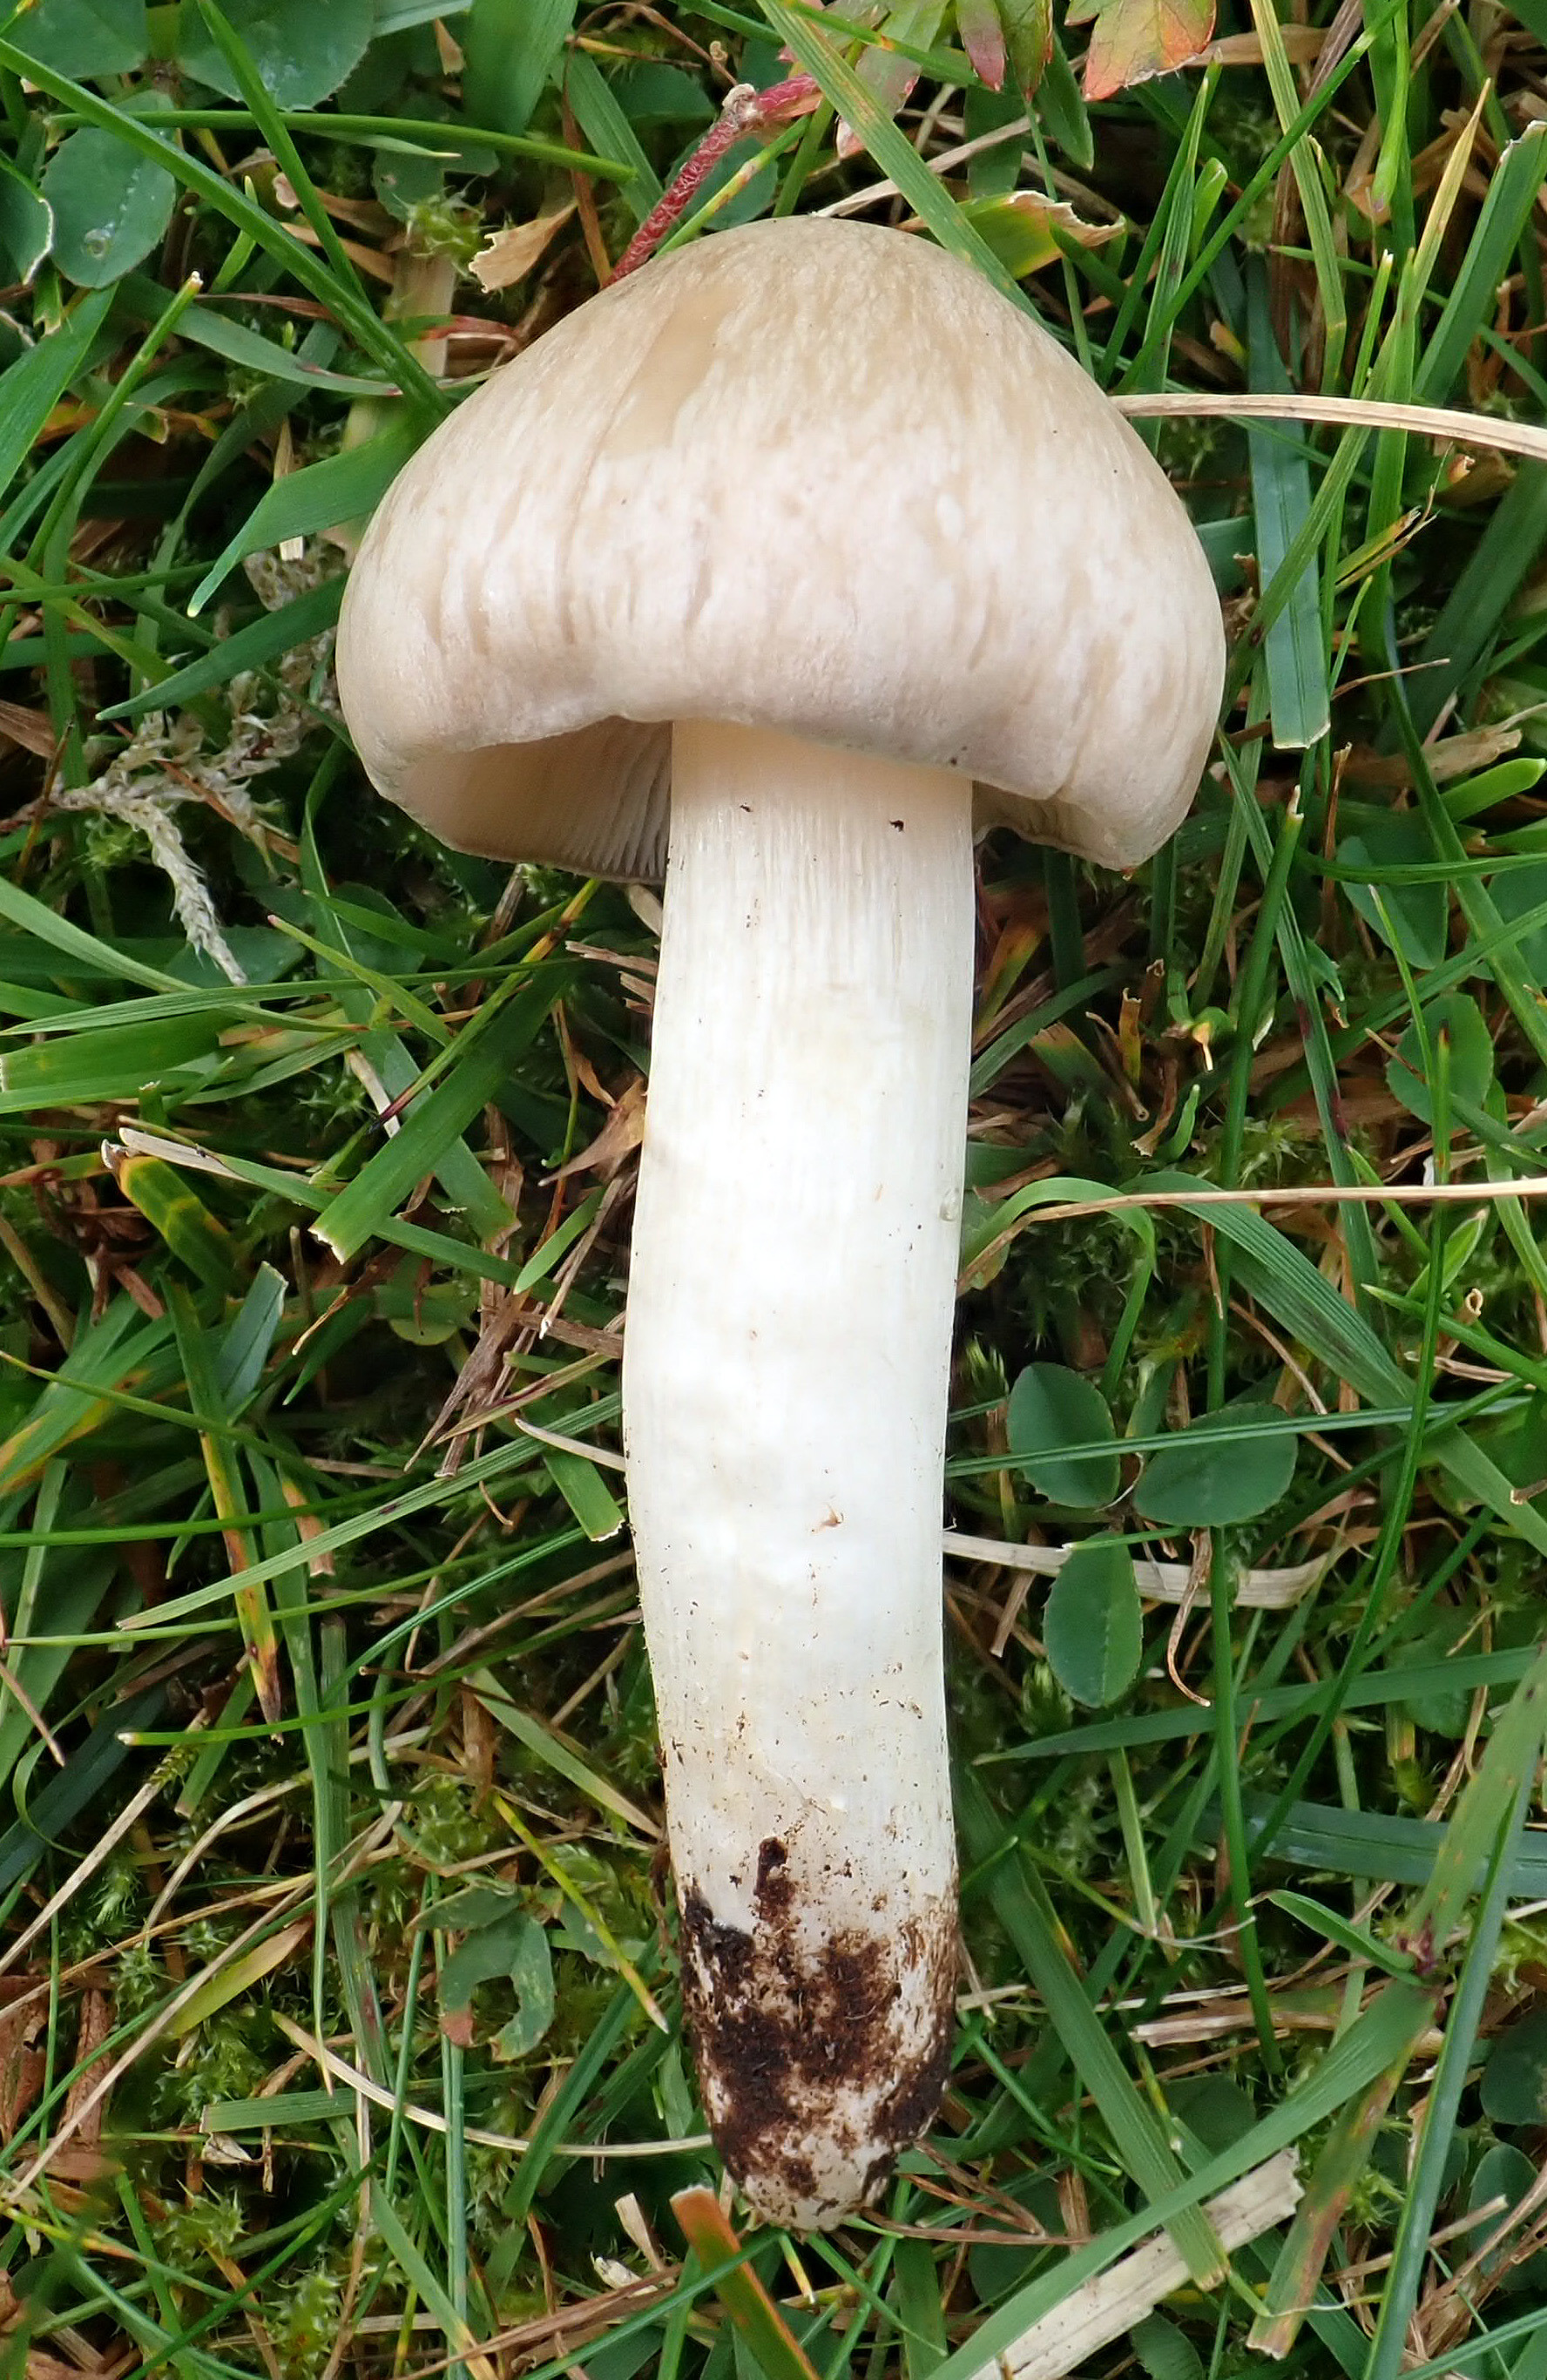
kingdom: Fungi
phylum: Basidiomycota
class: Agaricomycetes
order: Agaricales
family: Entolomataceae
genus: Entoloma
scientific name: Entoloma prunuloides
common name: Mealy pinkgill
